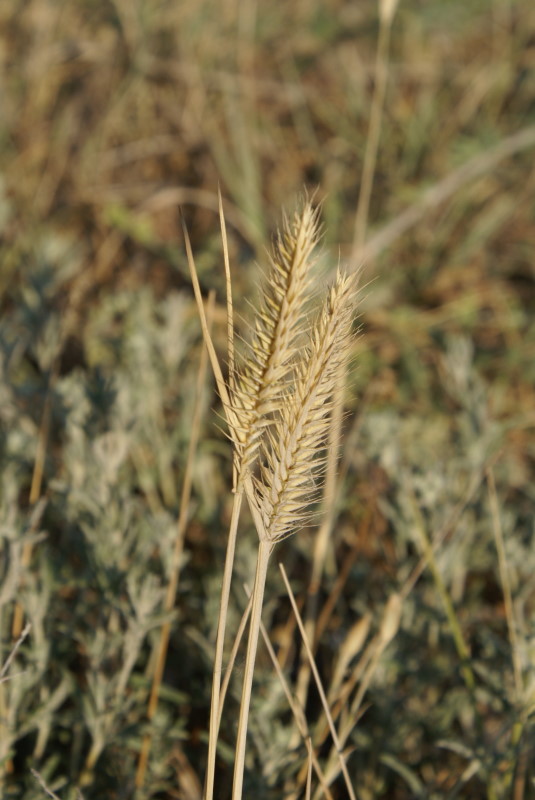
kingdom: Plantae
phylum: Tracheophyta
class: Liliopsida
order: Poales
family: Poaceae
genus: Eremopyrum
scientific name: Eremopyrum orientale
